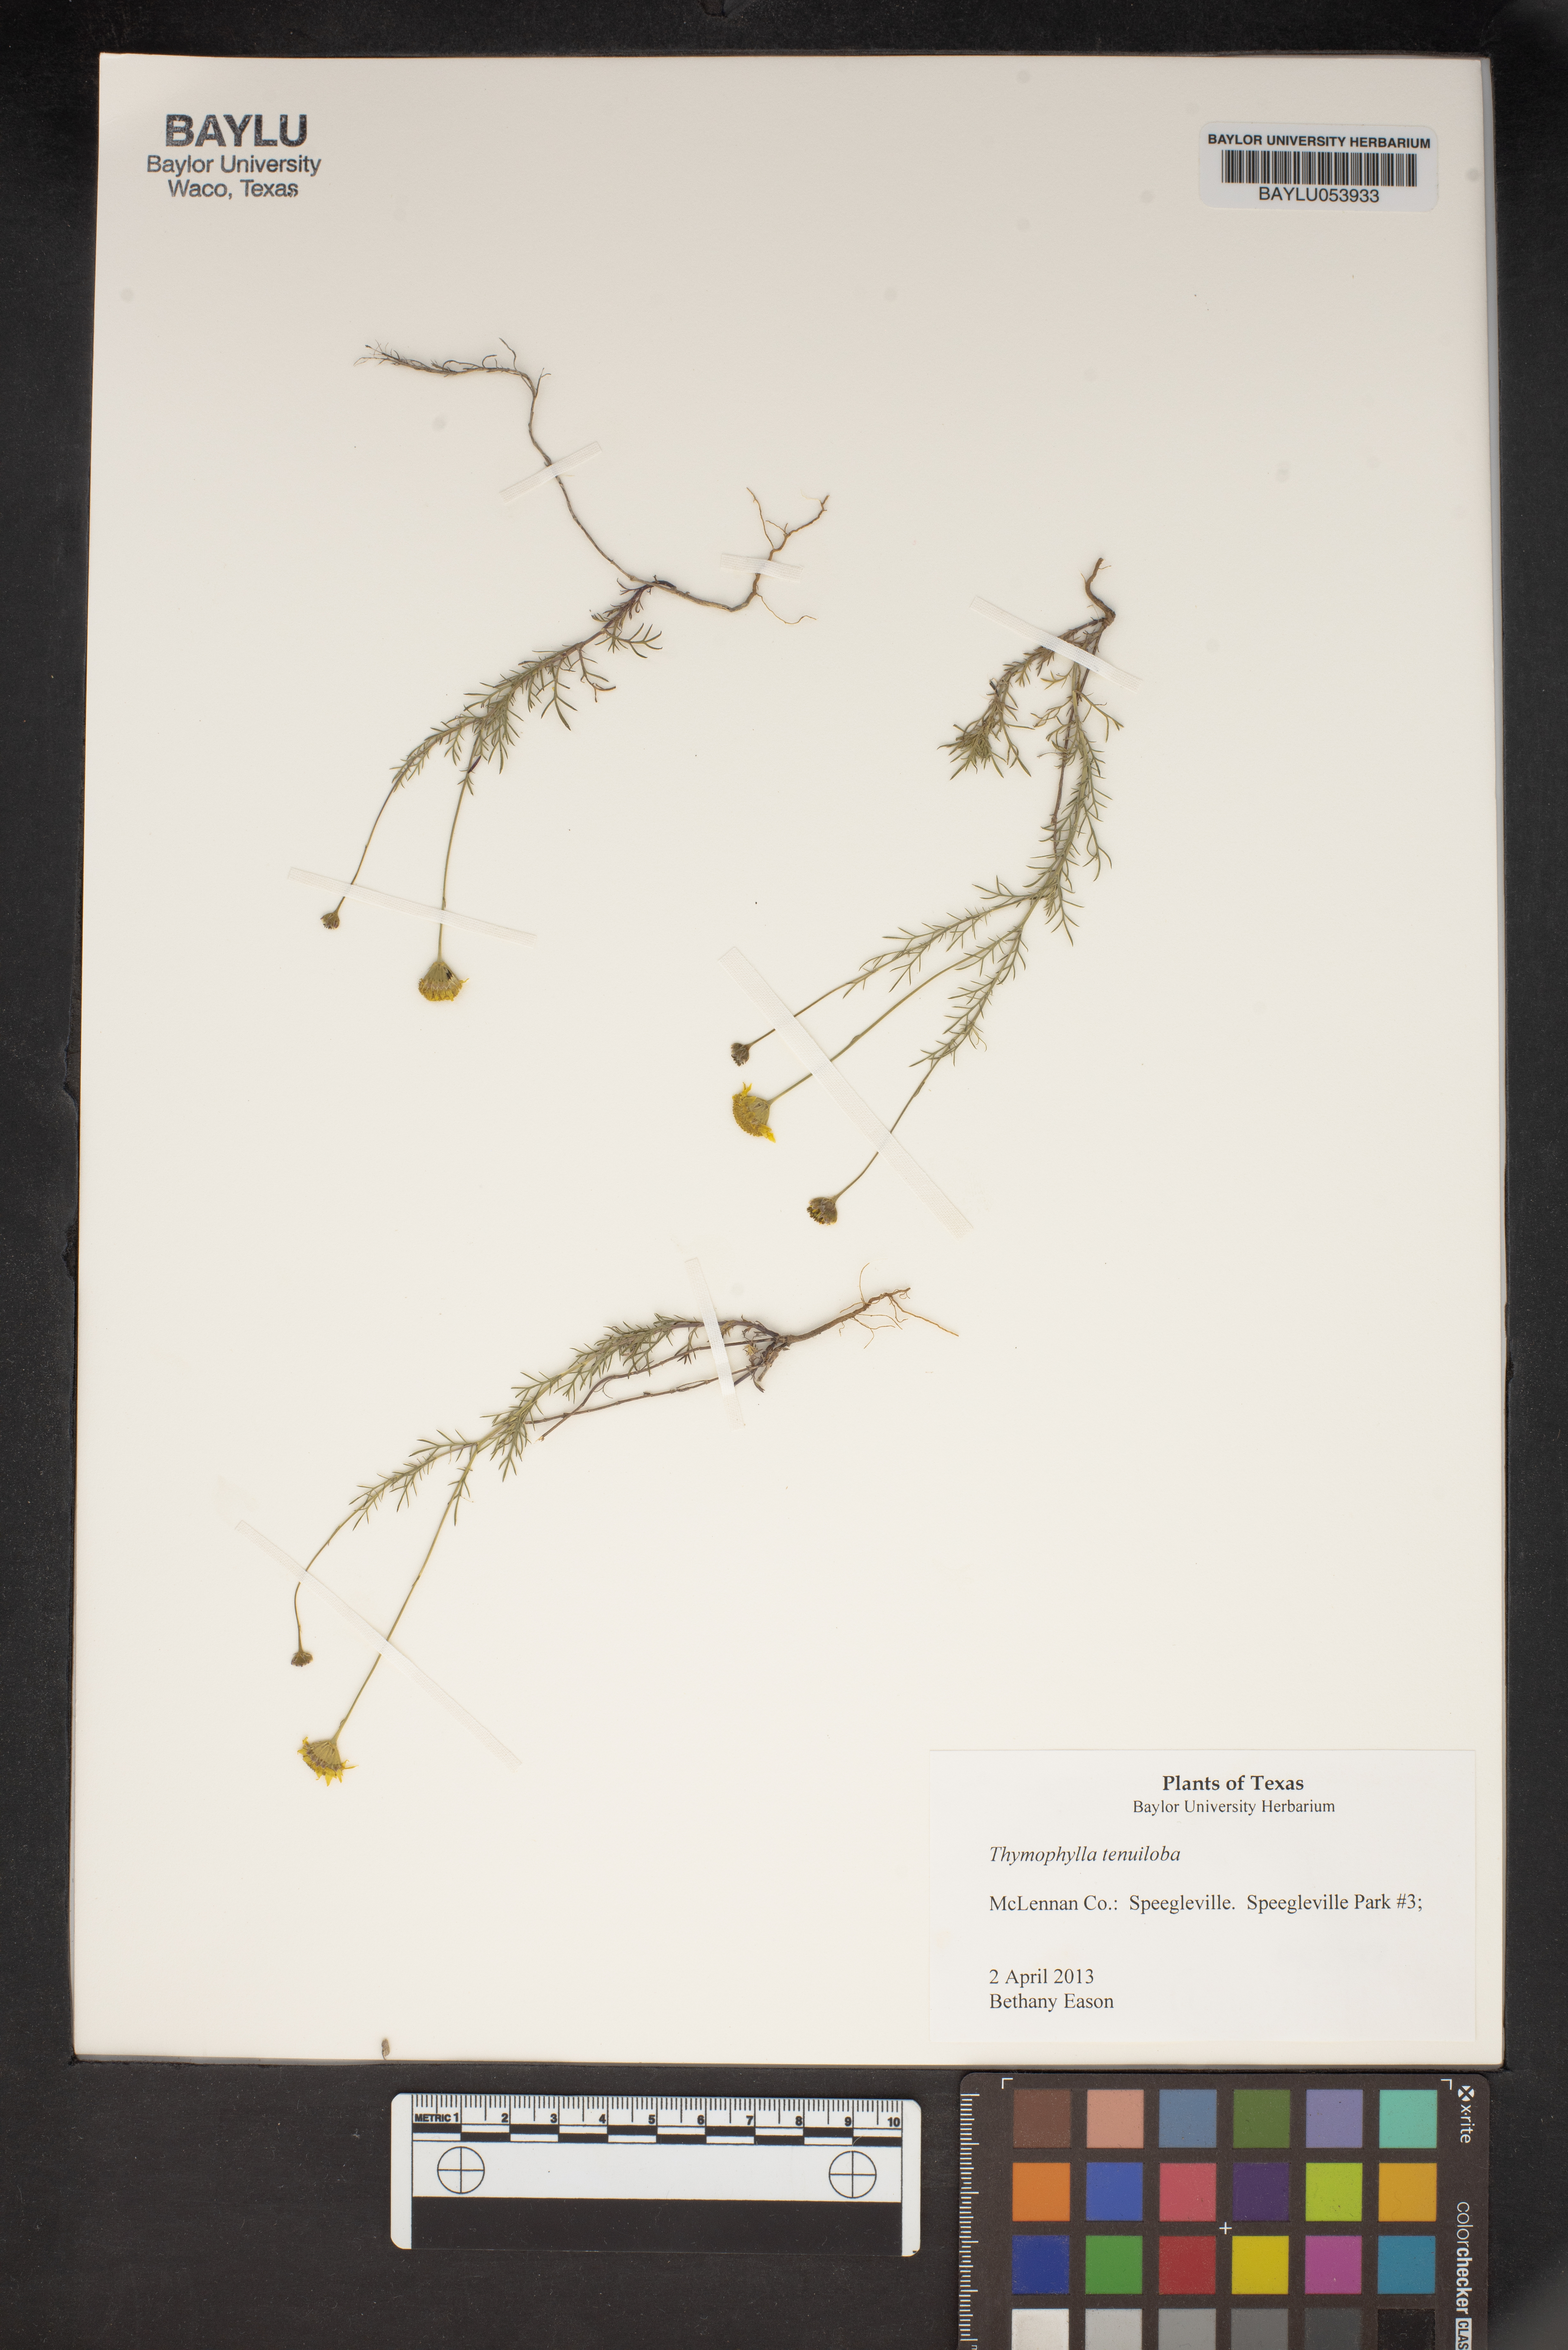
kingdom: Plantae
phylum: Tracheophyta
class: Magnoliopsida
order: Asterales
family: Asteraceae
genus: Thymophylla
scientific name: Thymophylla tenuiloba
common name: Dahlberg's daisy
